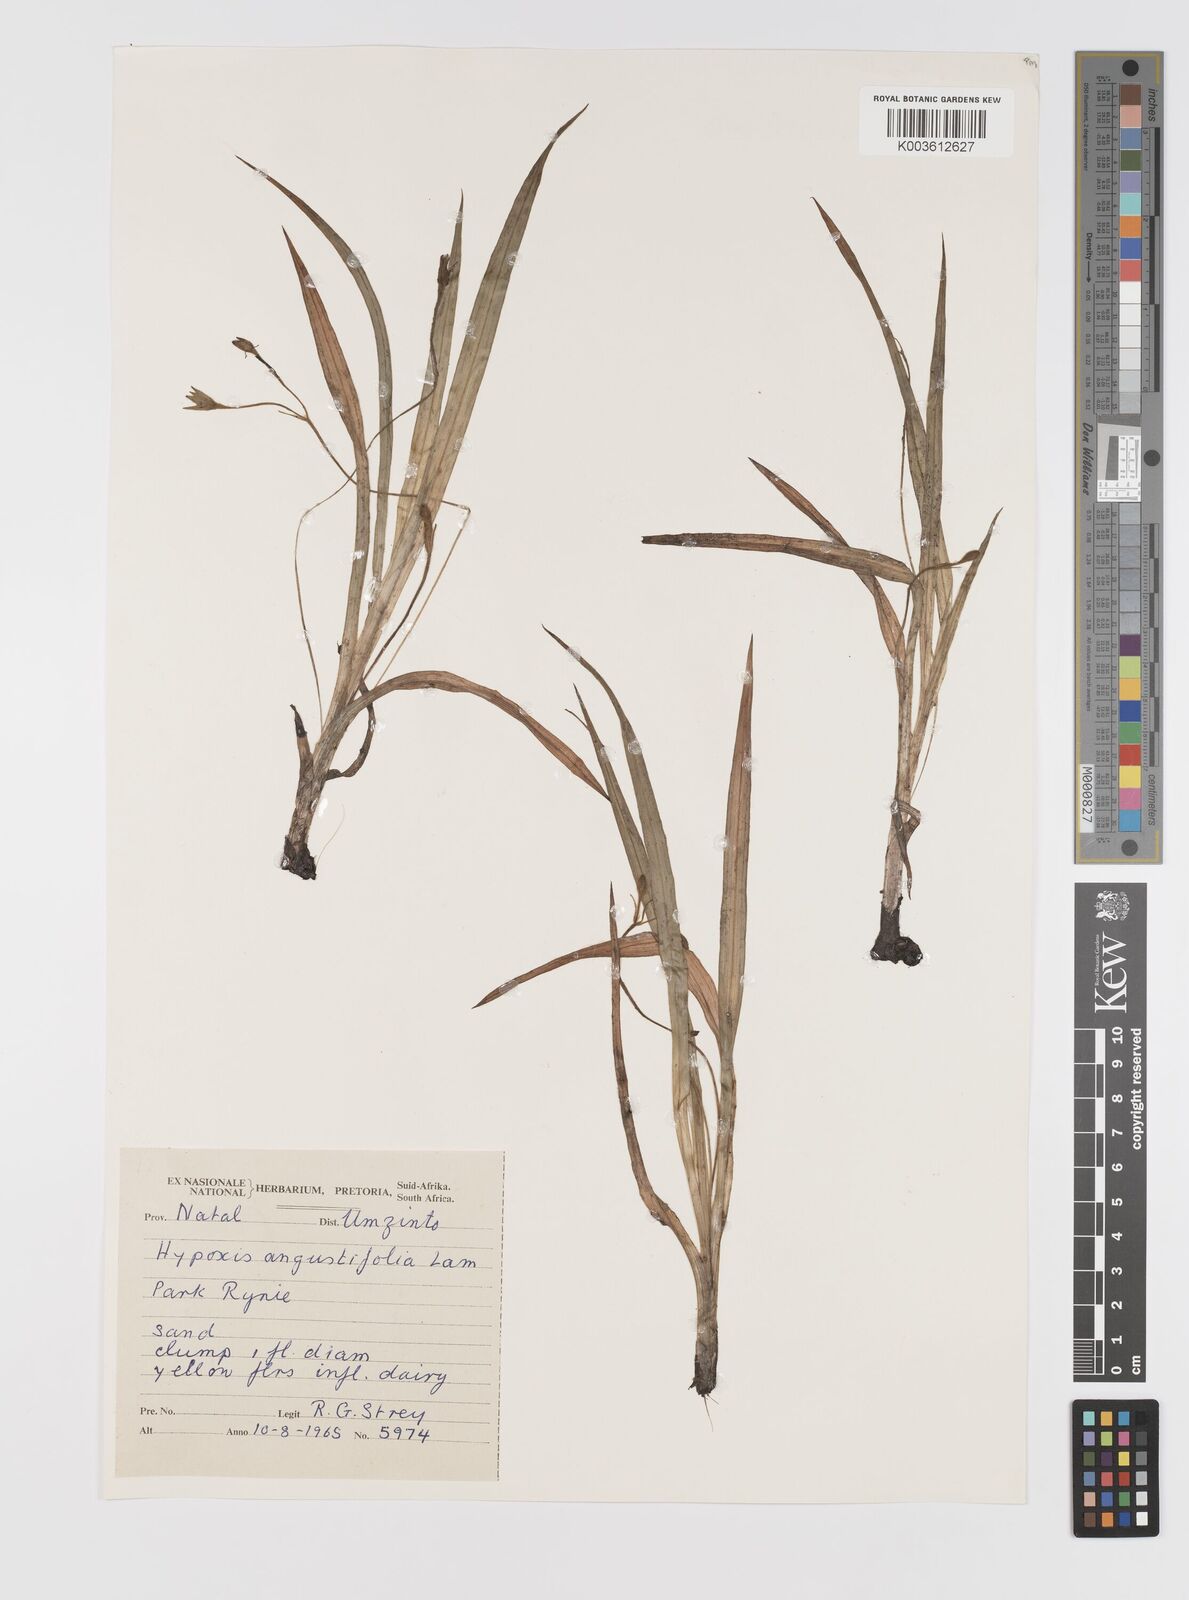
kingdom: Plantae
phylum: Tracheophyta
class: Liliopsida
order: Asparagales
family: Hypoxidaceae
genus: Hypoxis
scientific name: Hypoxis angustifolia
